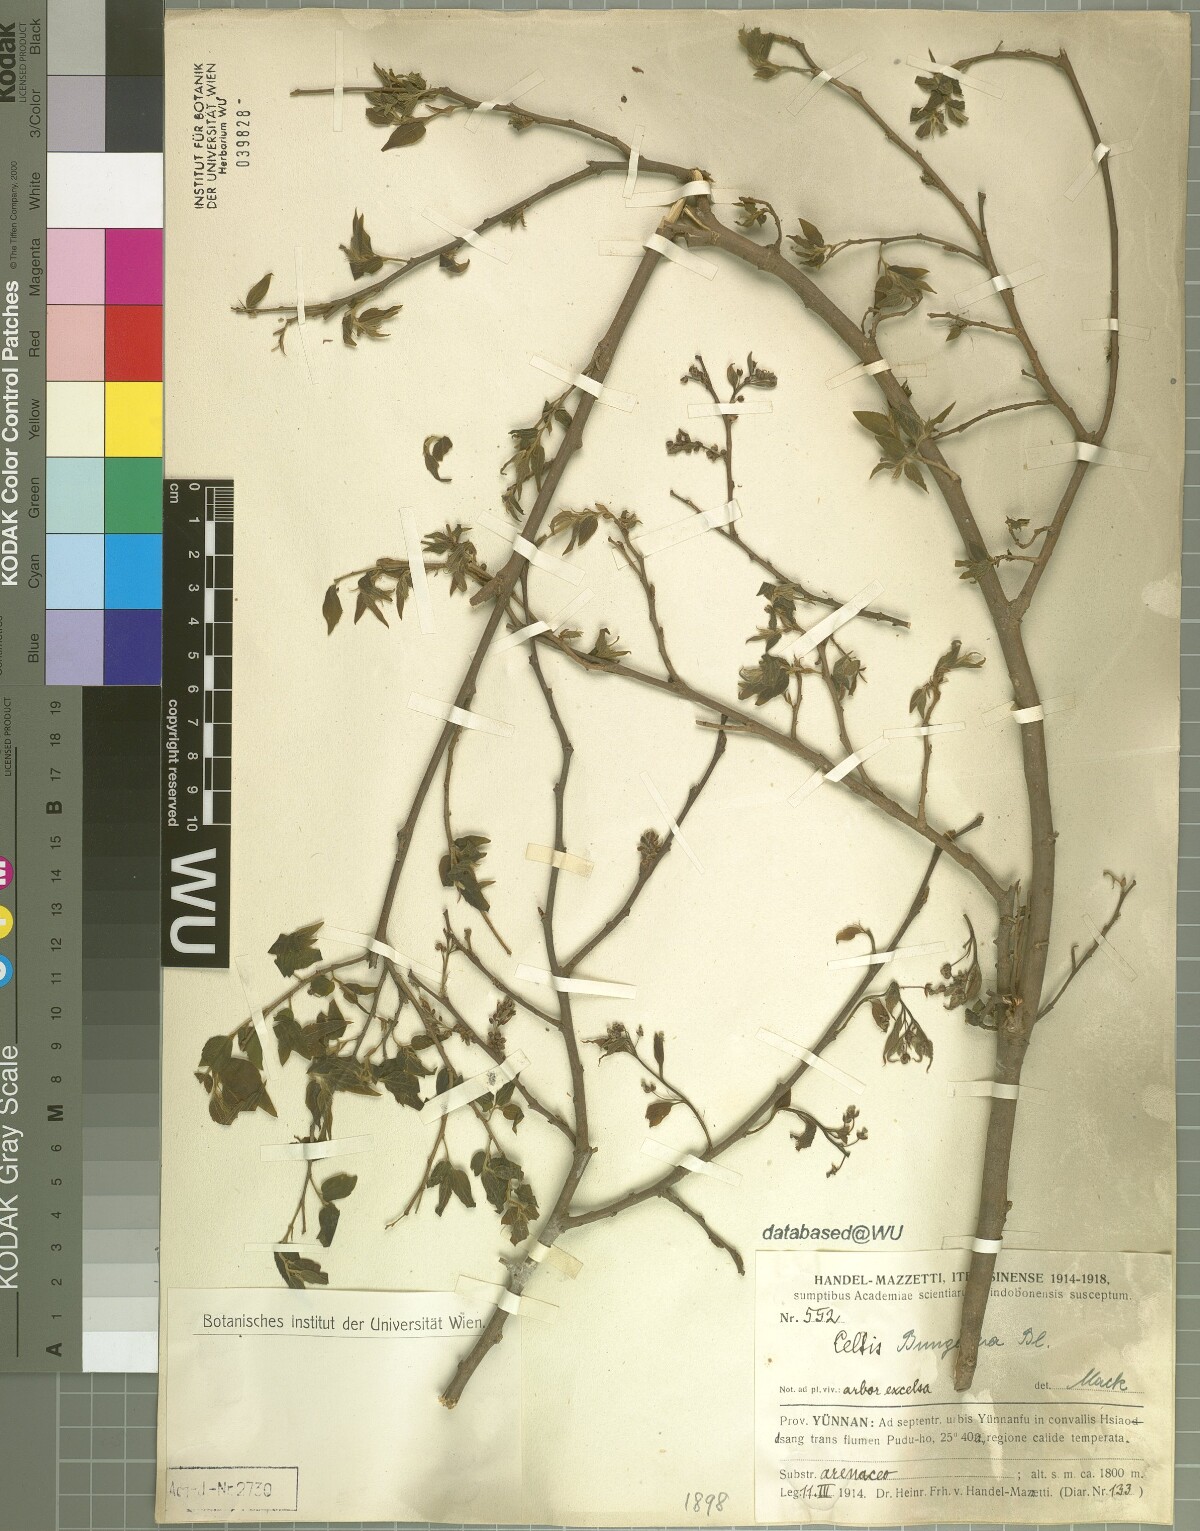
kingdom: Plantae
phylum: Tracheophyta
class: Magnoliopsida
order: Rosales
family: Cannabaceae
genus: Celtis
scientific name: Celtis bungeana
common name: Bunge's hackberry
